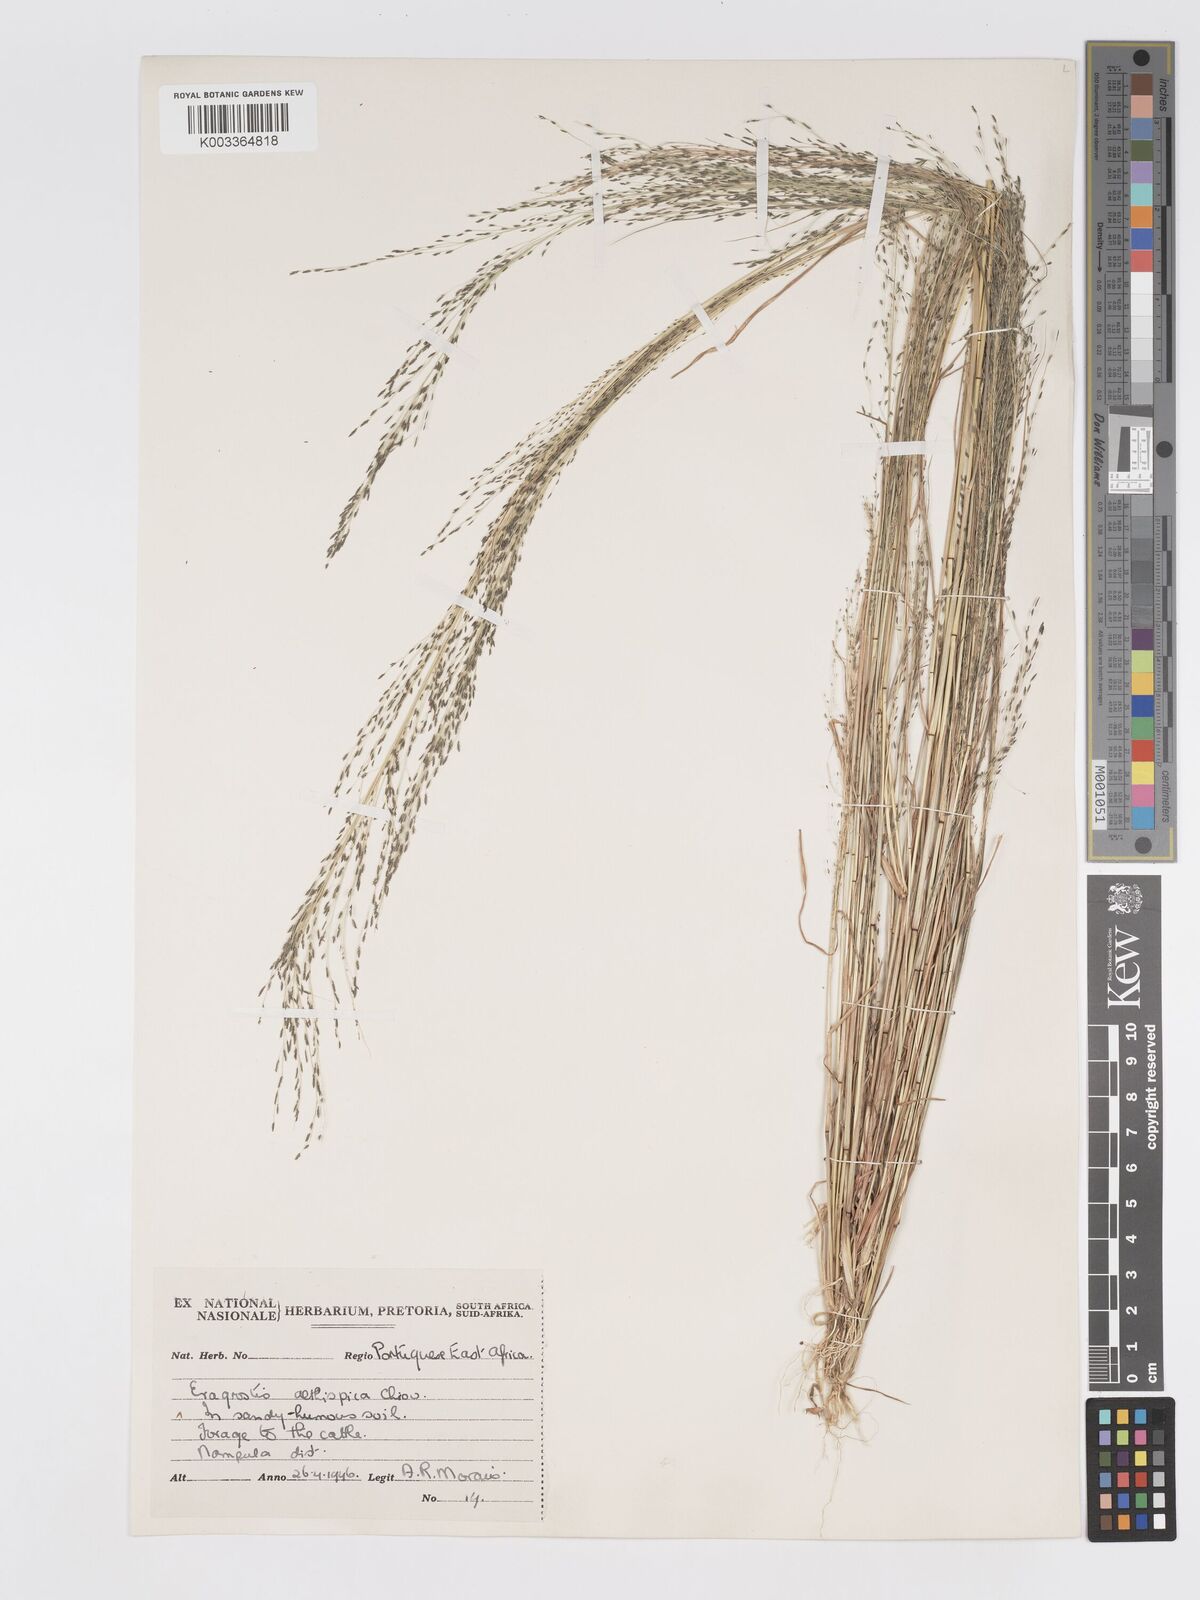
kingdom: Plantae
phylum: Tracheophyta
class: Liliopsida
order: Poales
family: Poaceae
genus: Eragrostis
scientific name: Eragrostis aethiopica
